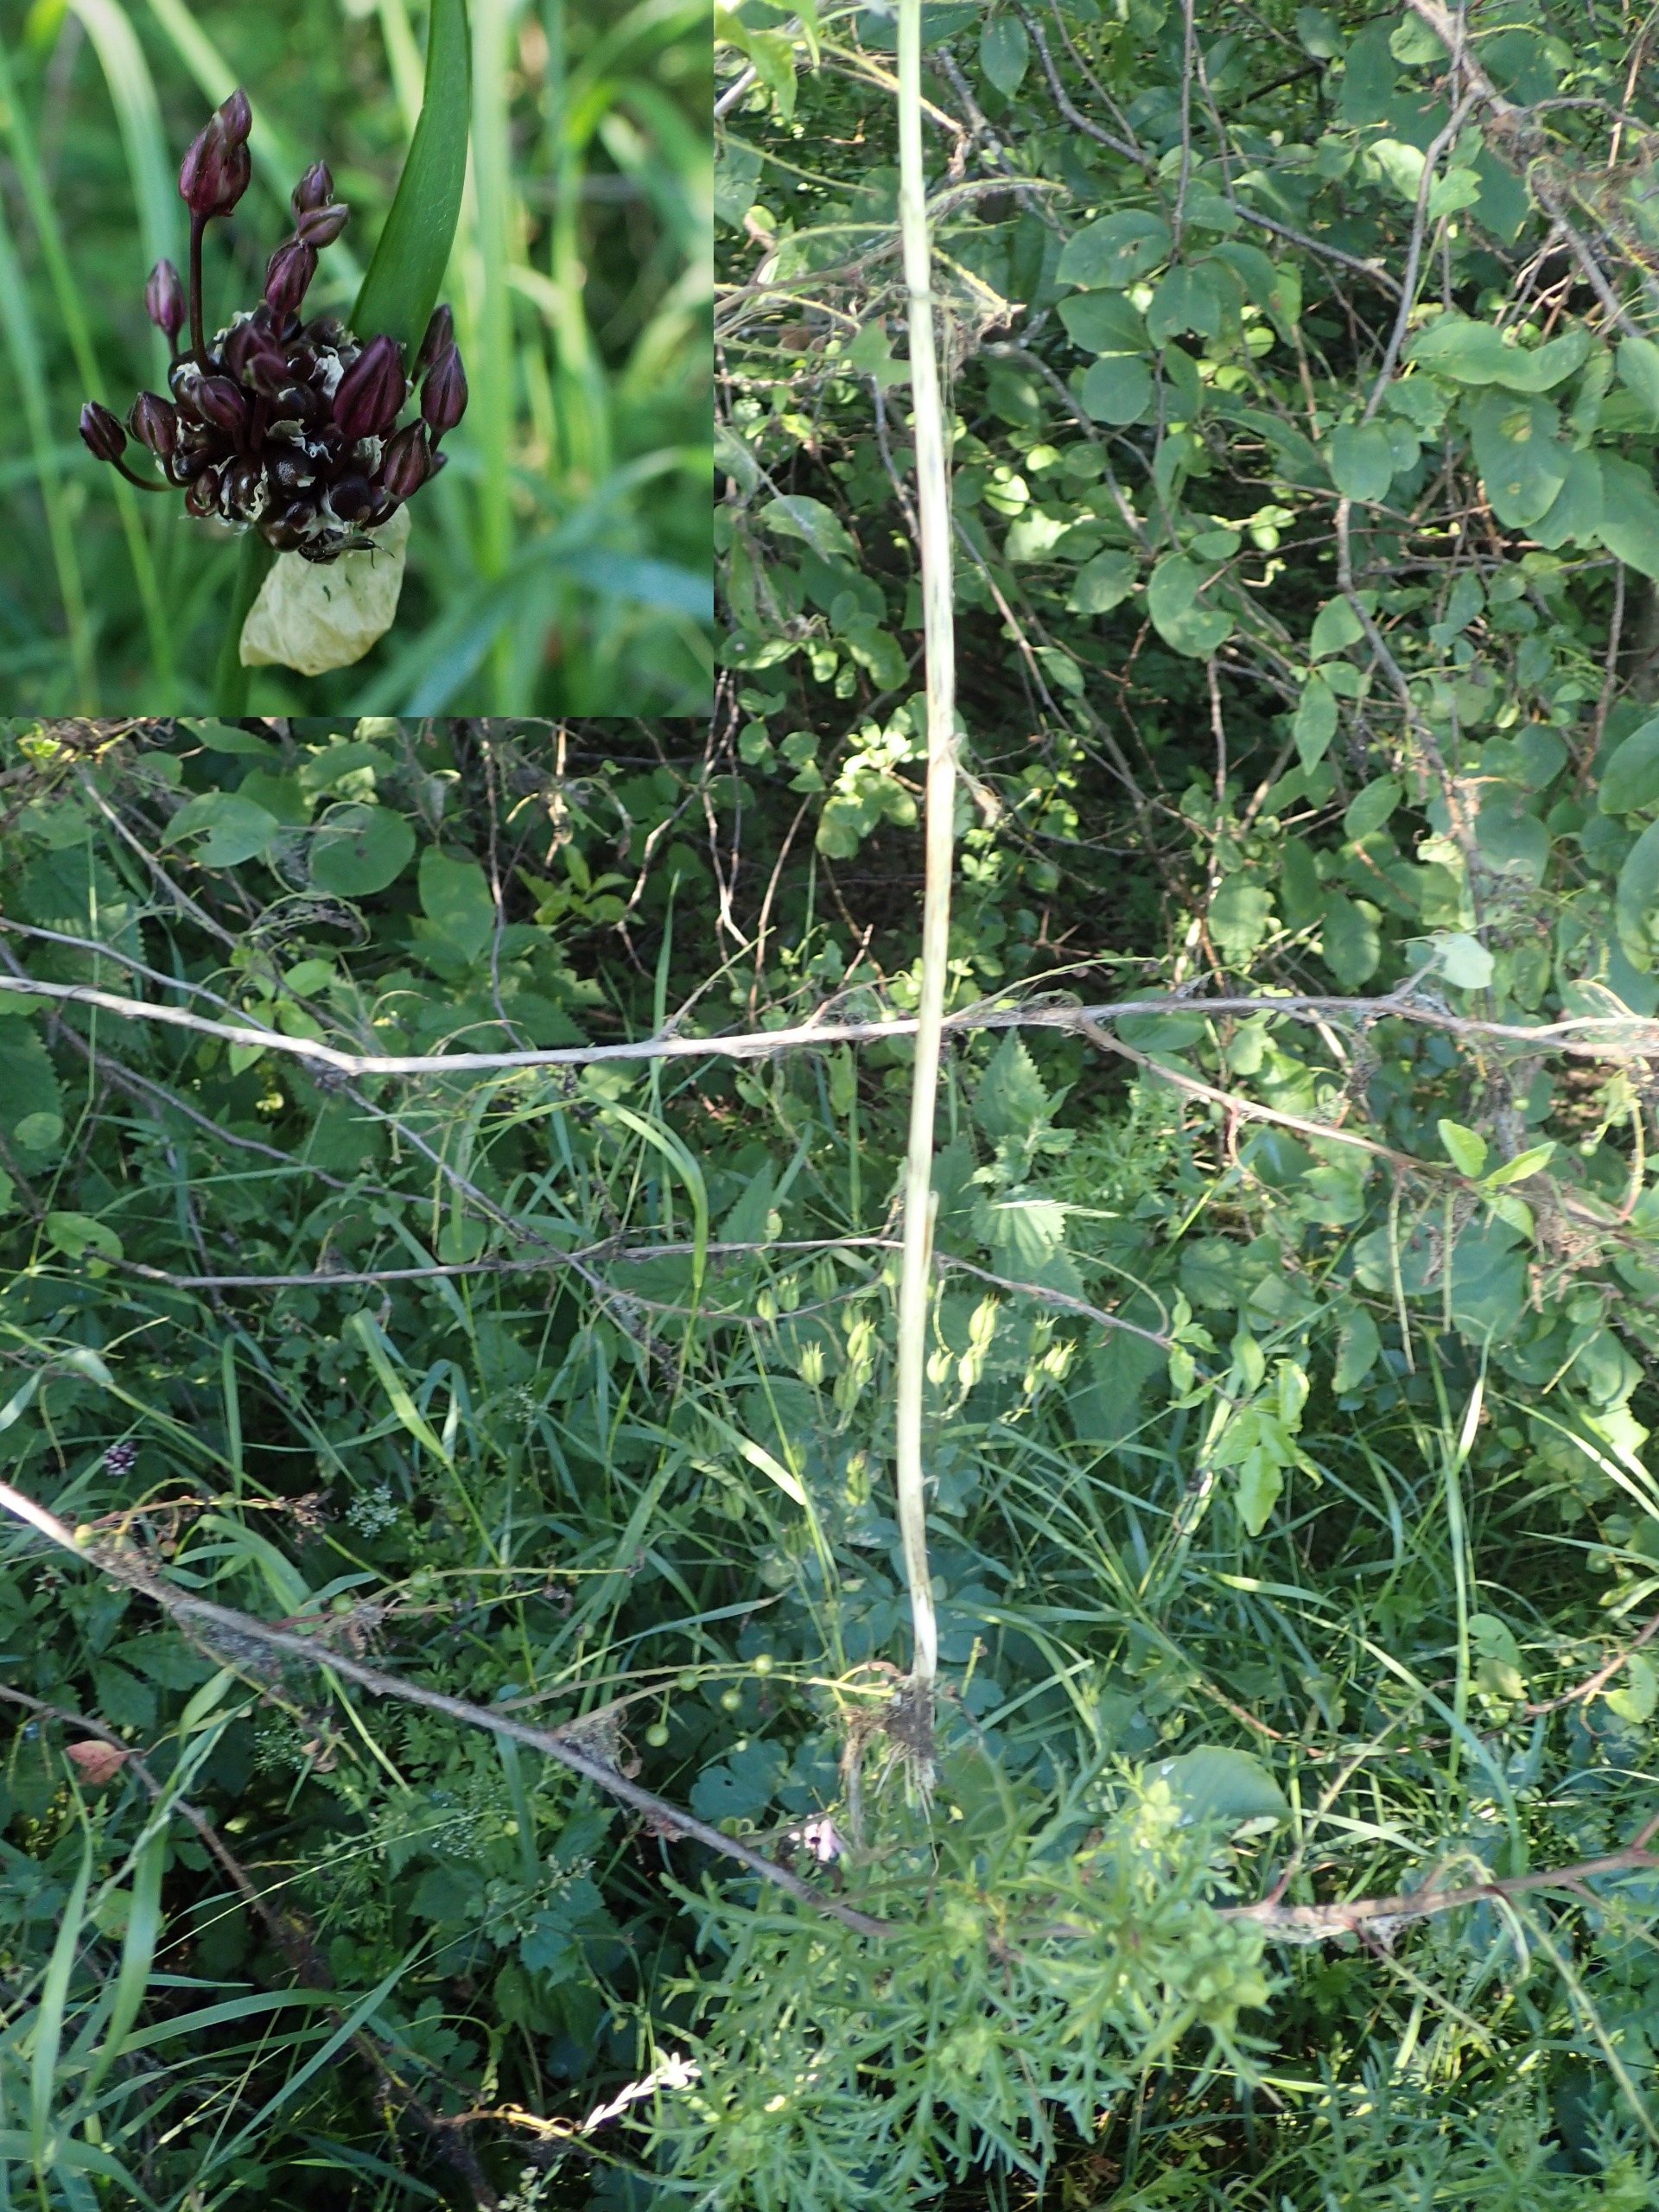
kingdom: Plantae
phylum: Tracheophyta
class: Liliopsida
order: Asparagales
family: Amaryllidaceae
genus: Allium
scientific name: Allium scorodoprasum
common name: Skov-løg
